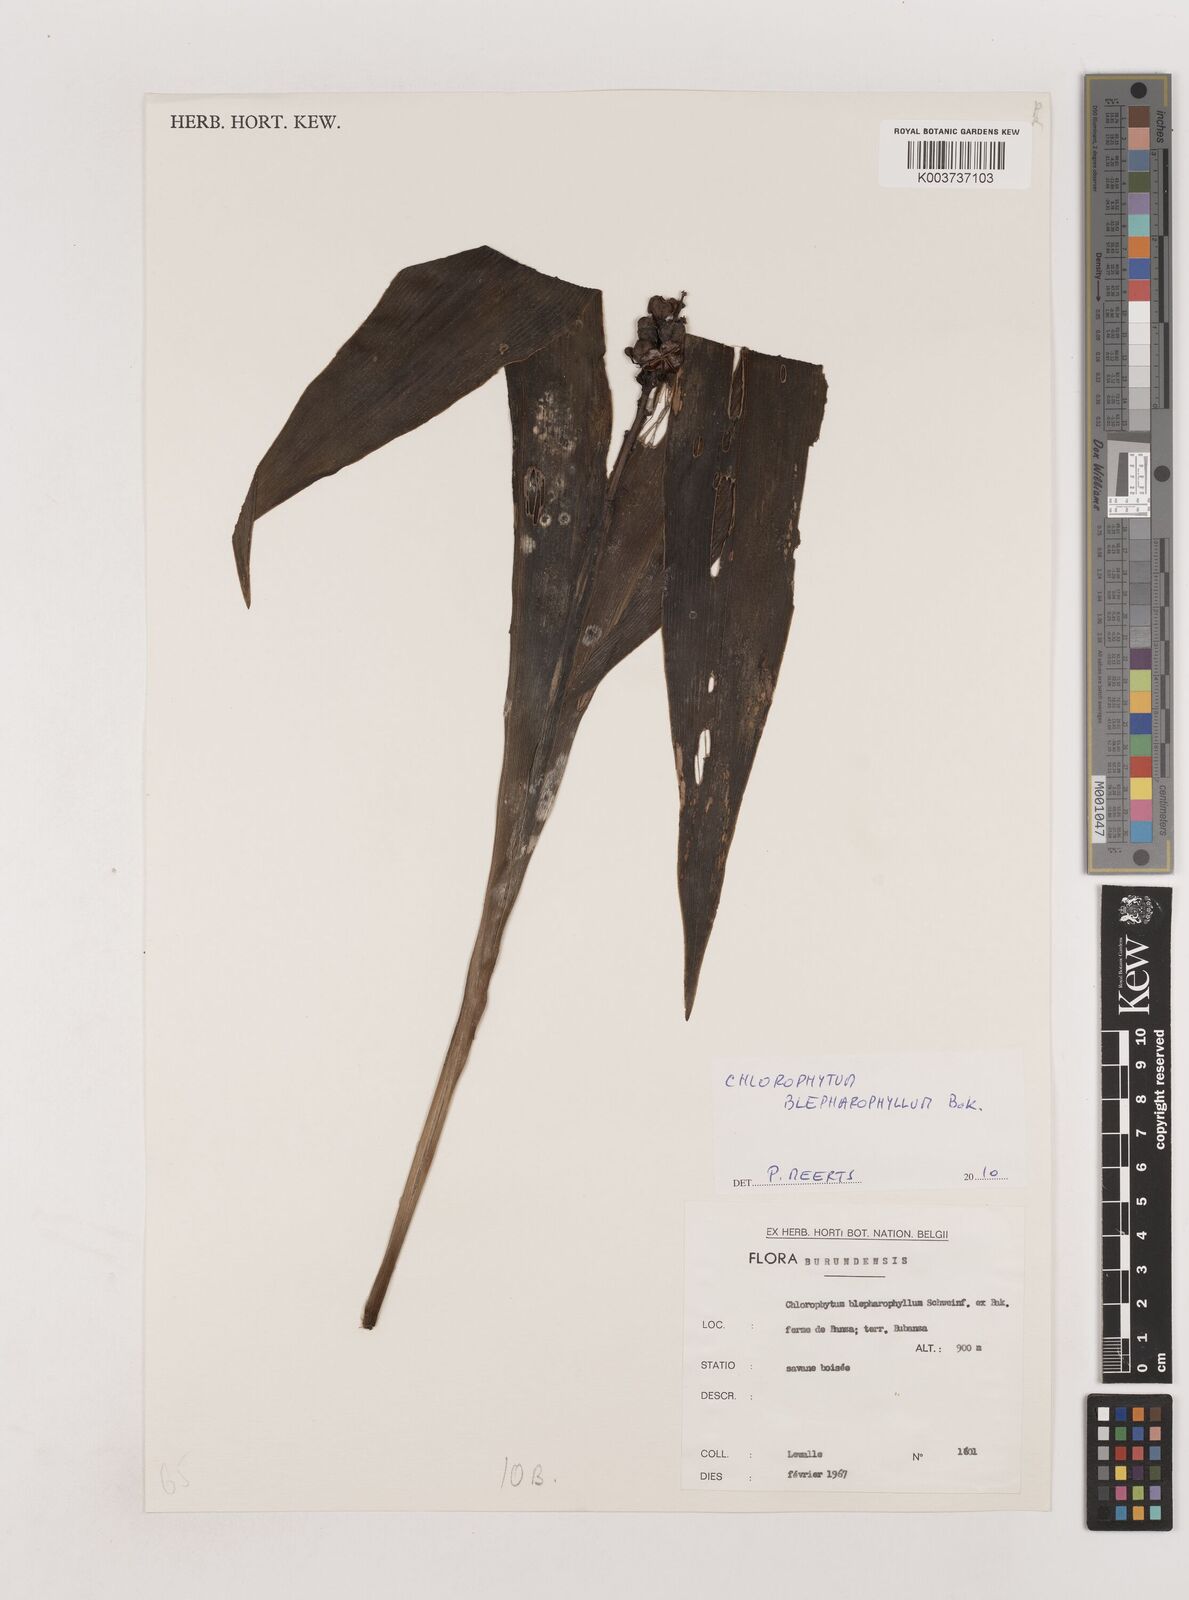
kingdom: Plantae
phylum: Tracheophyta
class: Liliopsida
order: Asparagales
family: Asparagaceae
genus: Chlorophytum
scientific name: Chlorophytum blepharophyllum
